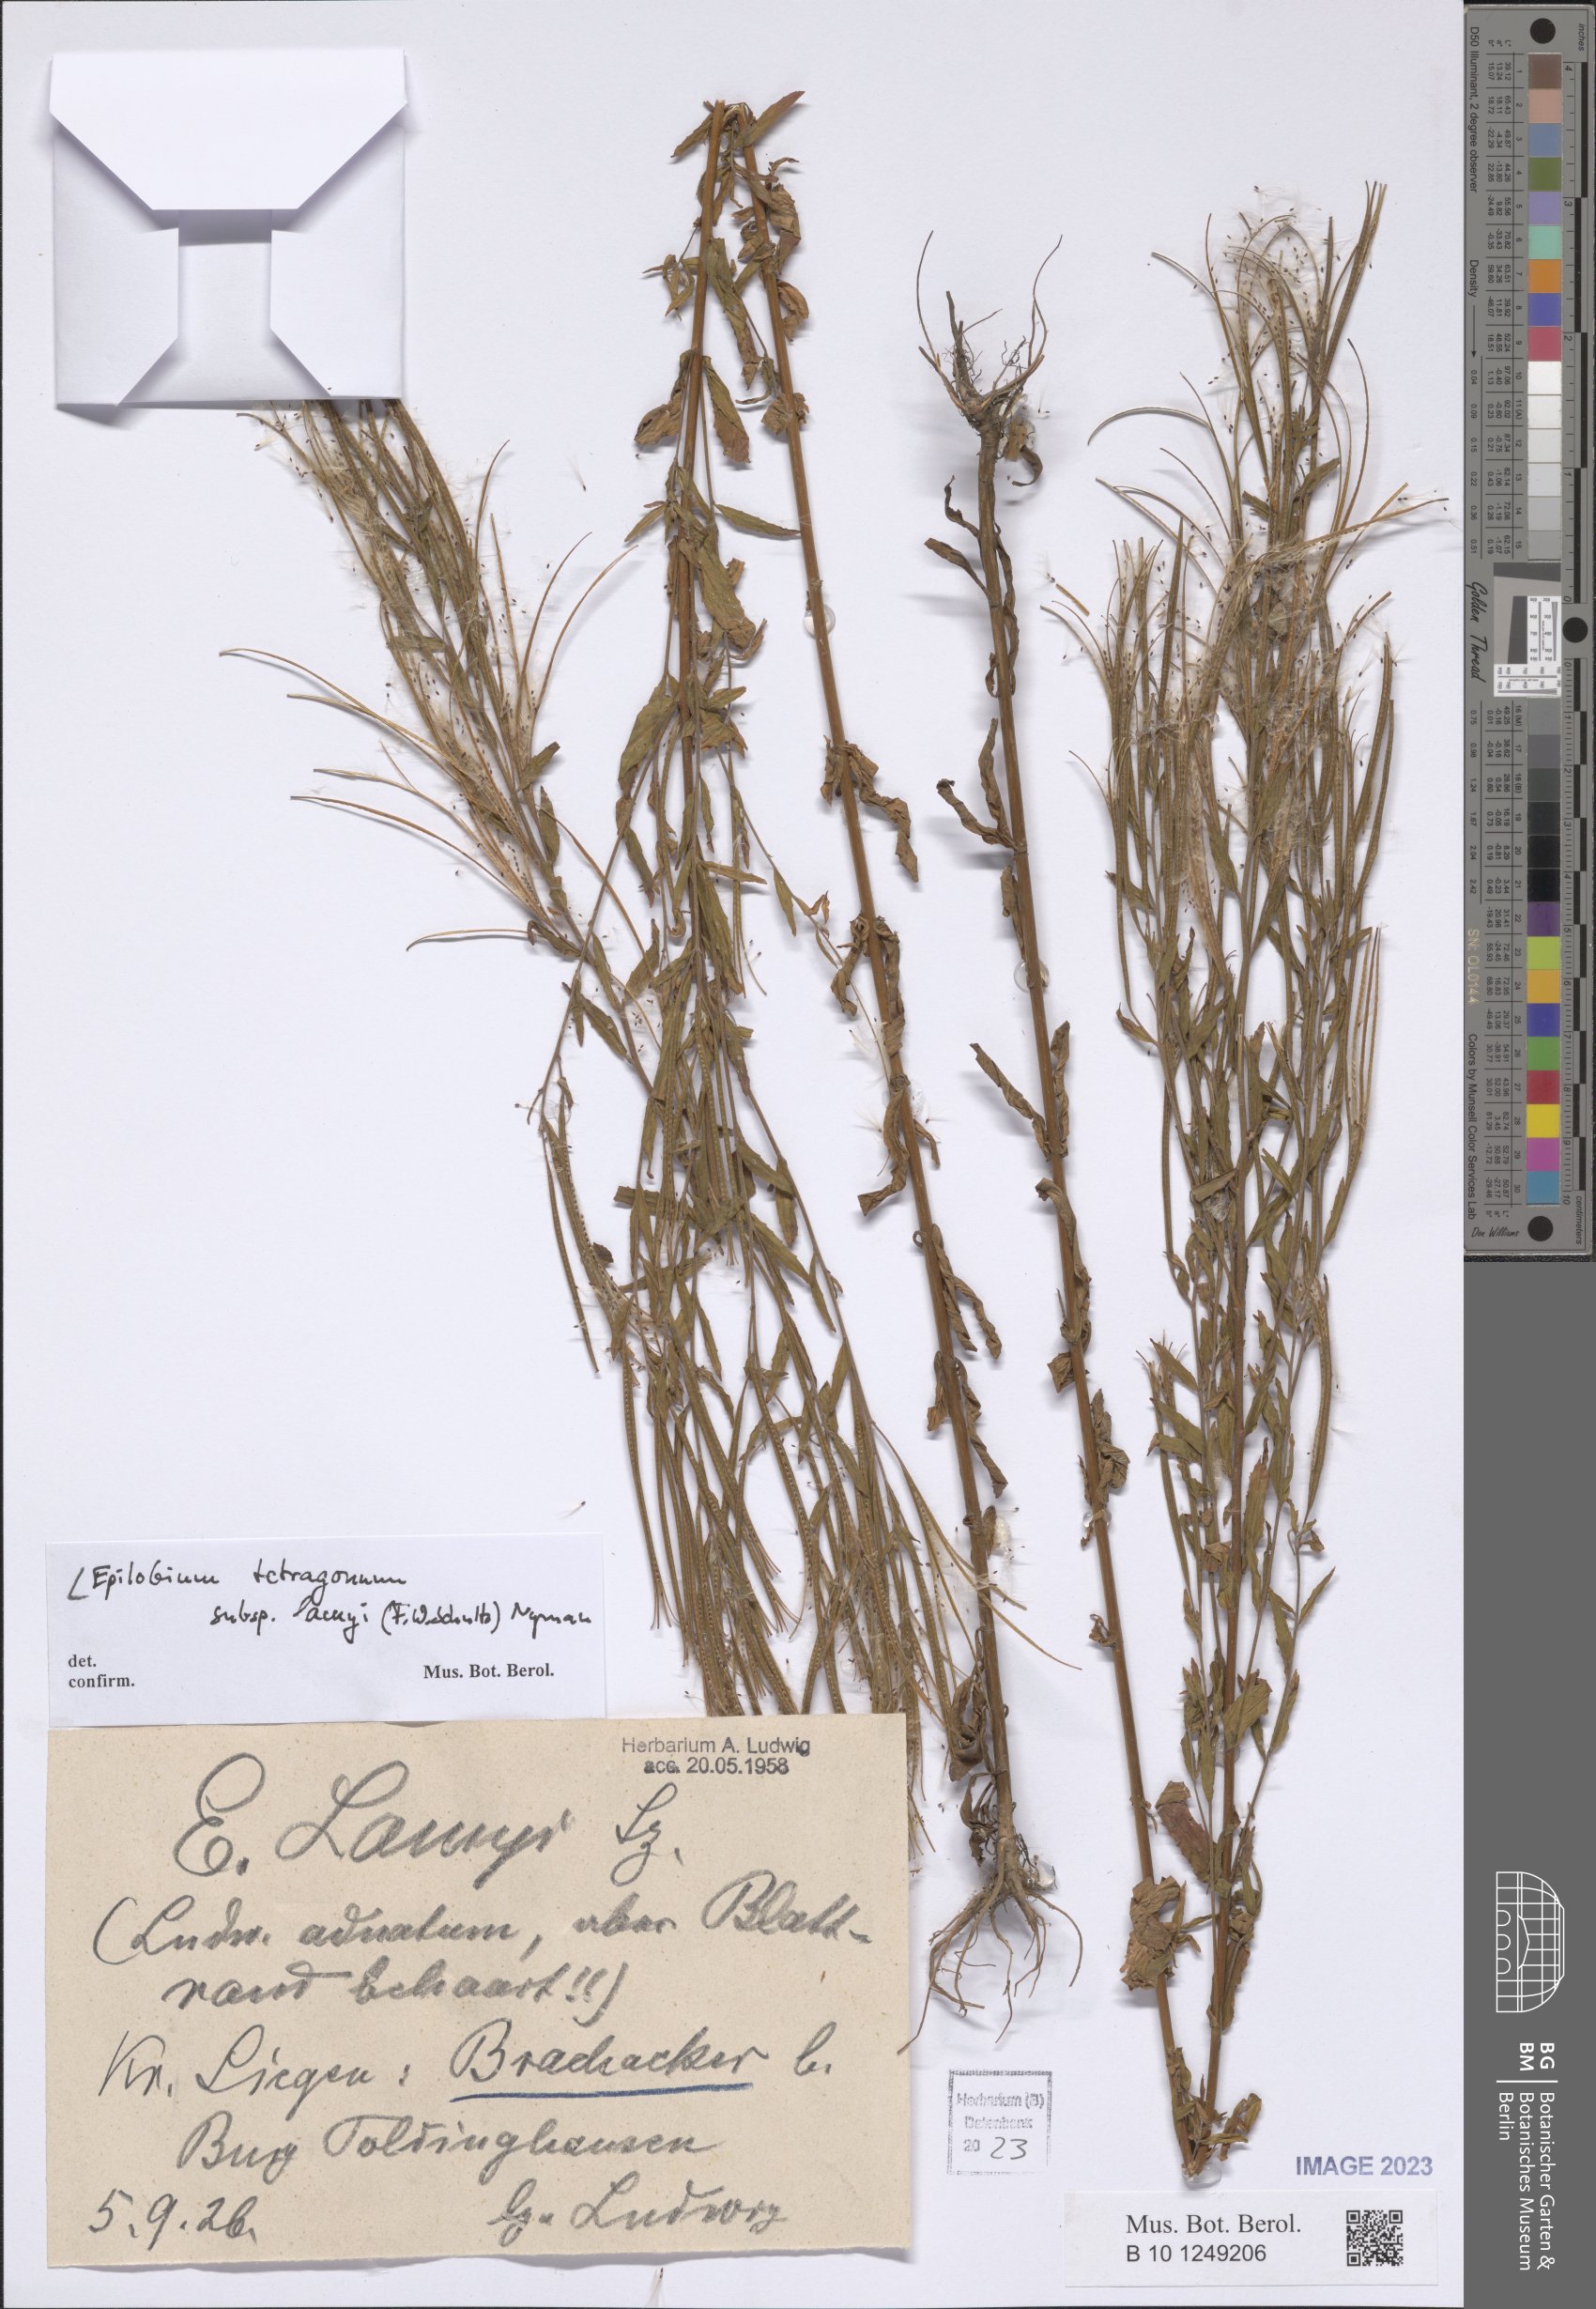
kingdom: Plantae
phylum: Tracheophyta
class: Magnoliopsida
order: Myrtales
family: Onagraceae
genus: Epilobium
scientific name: Epilobium lamyi
